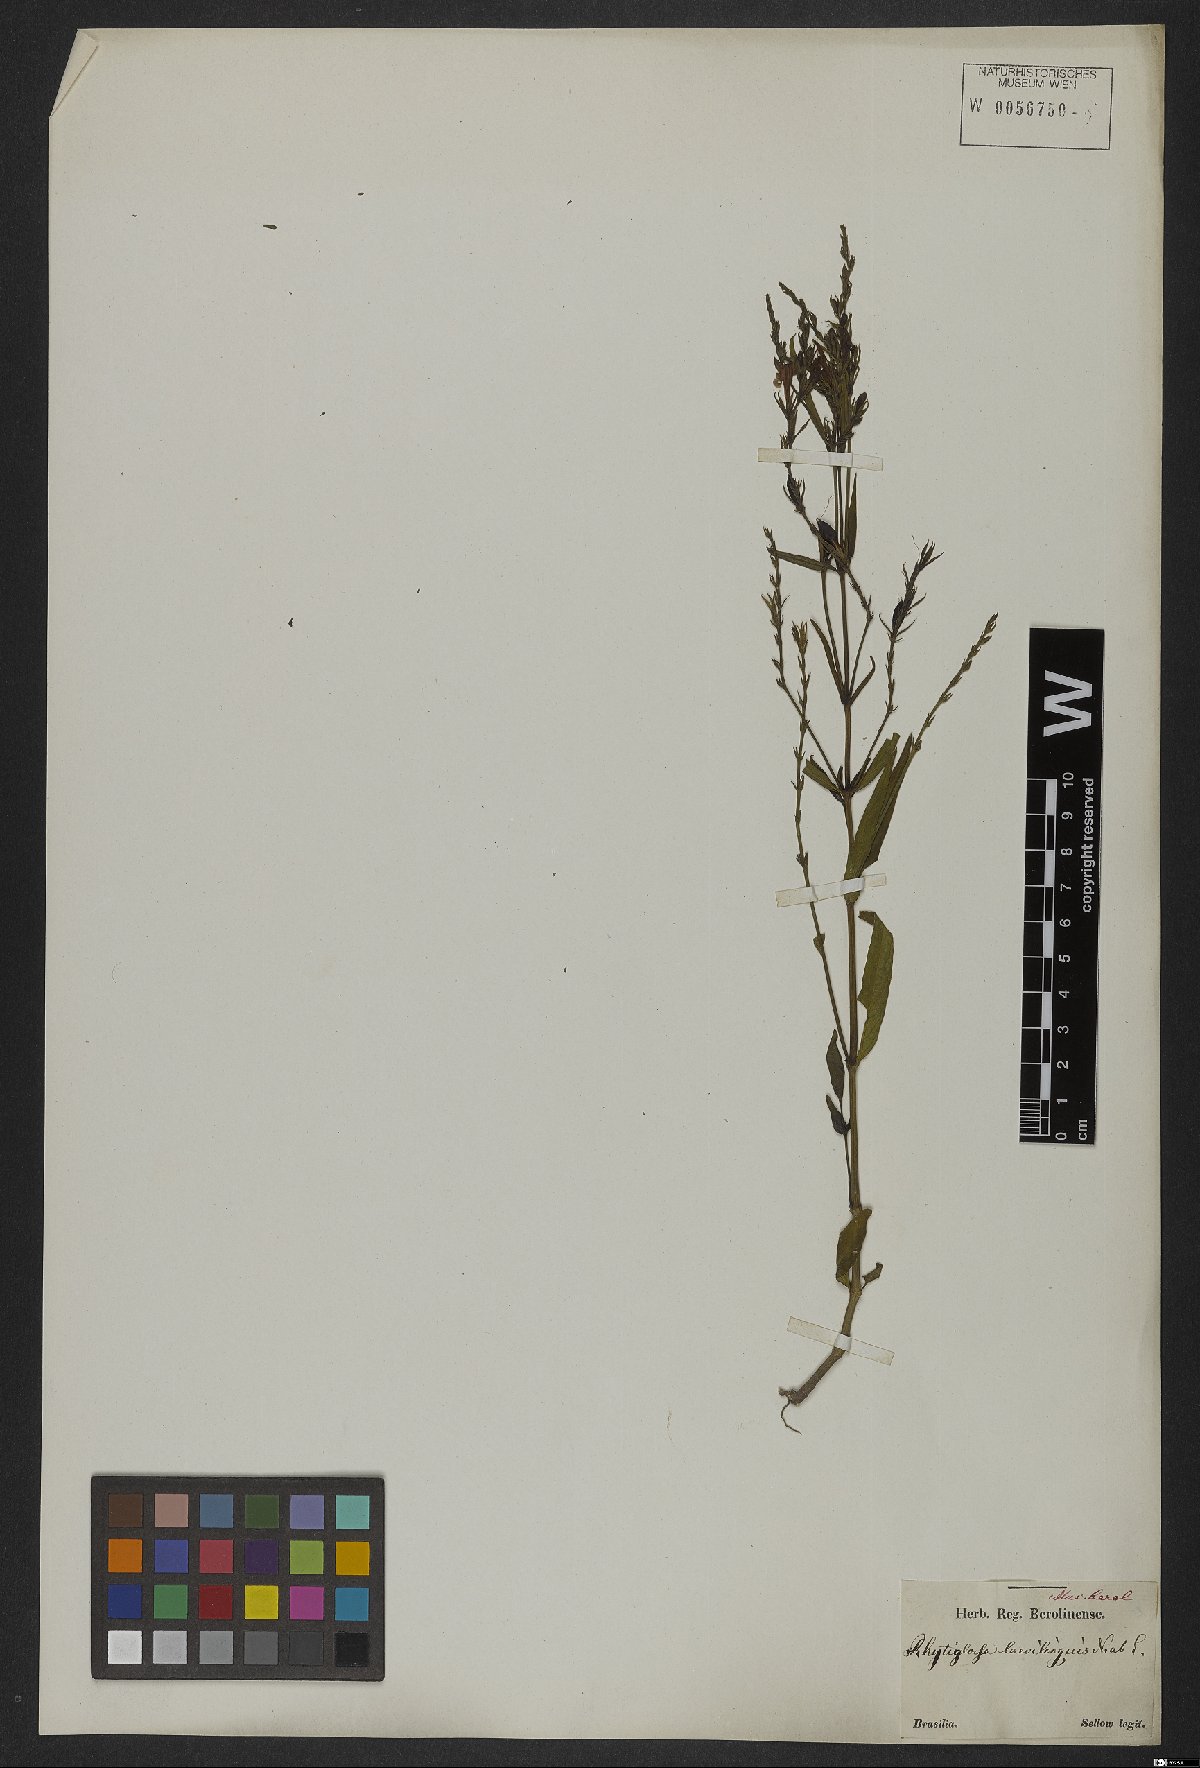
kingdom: Plantae
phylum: Tracheophyta
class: Magnoliopsida
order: Lamiales
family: Acanthaceae
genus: Dianthera
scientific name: Dianthera laevilinguis
